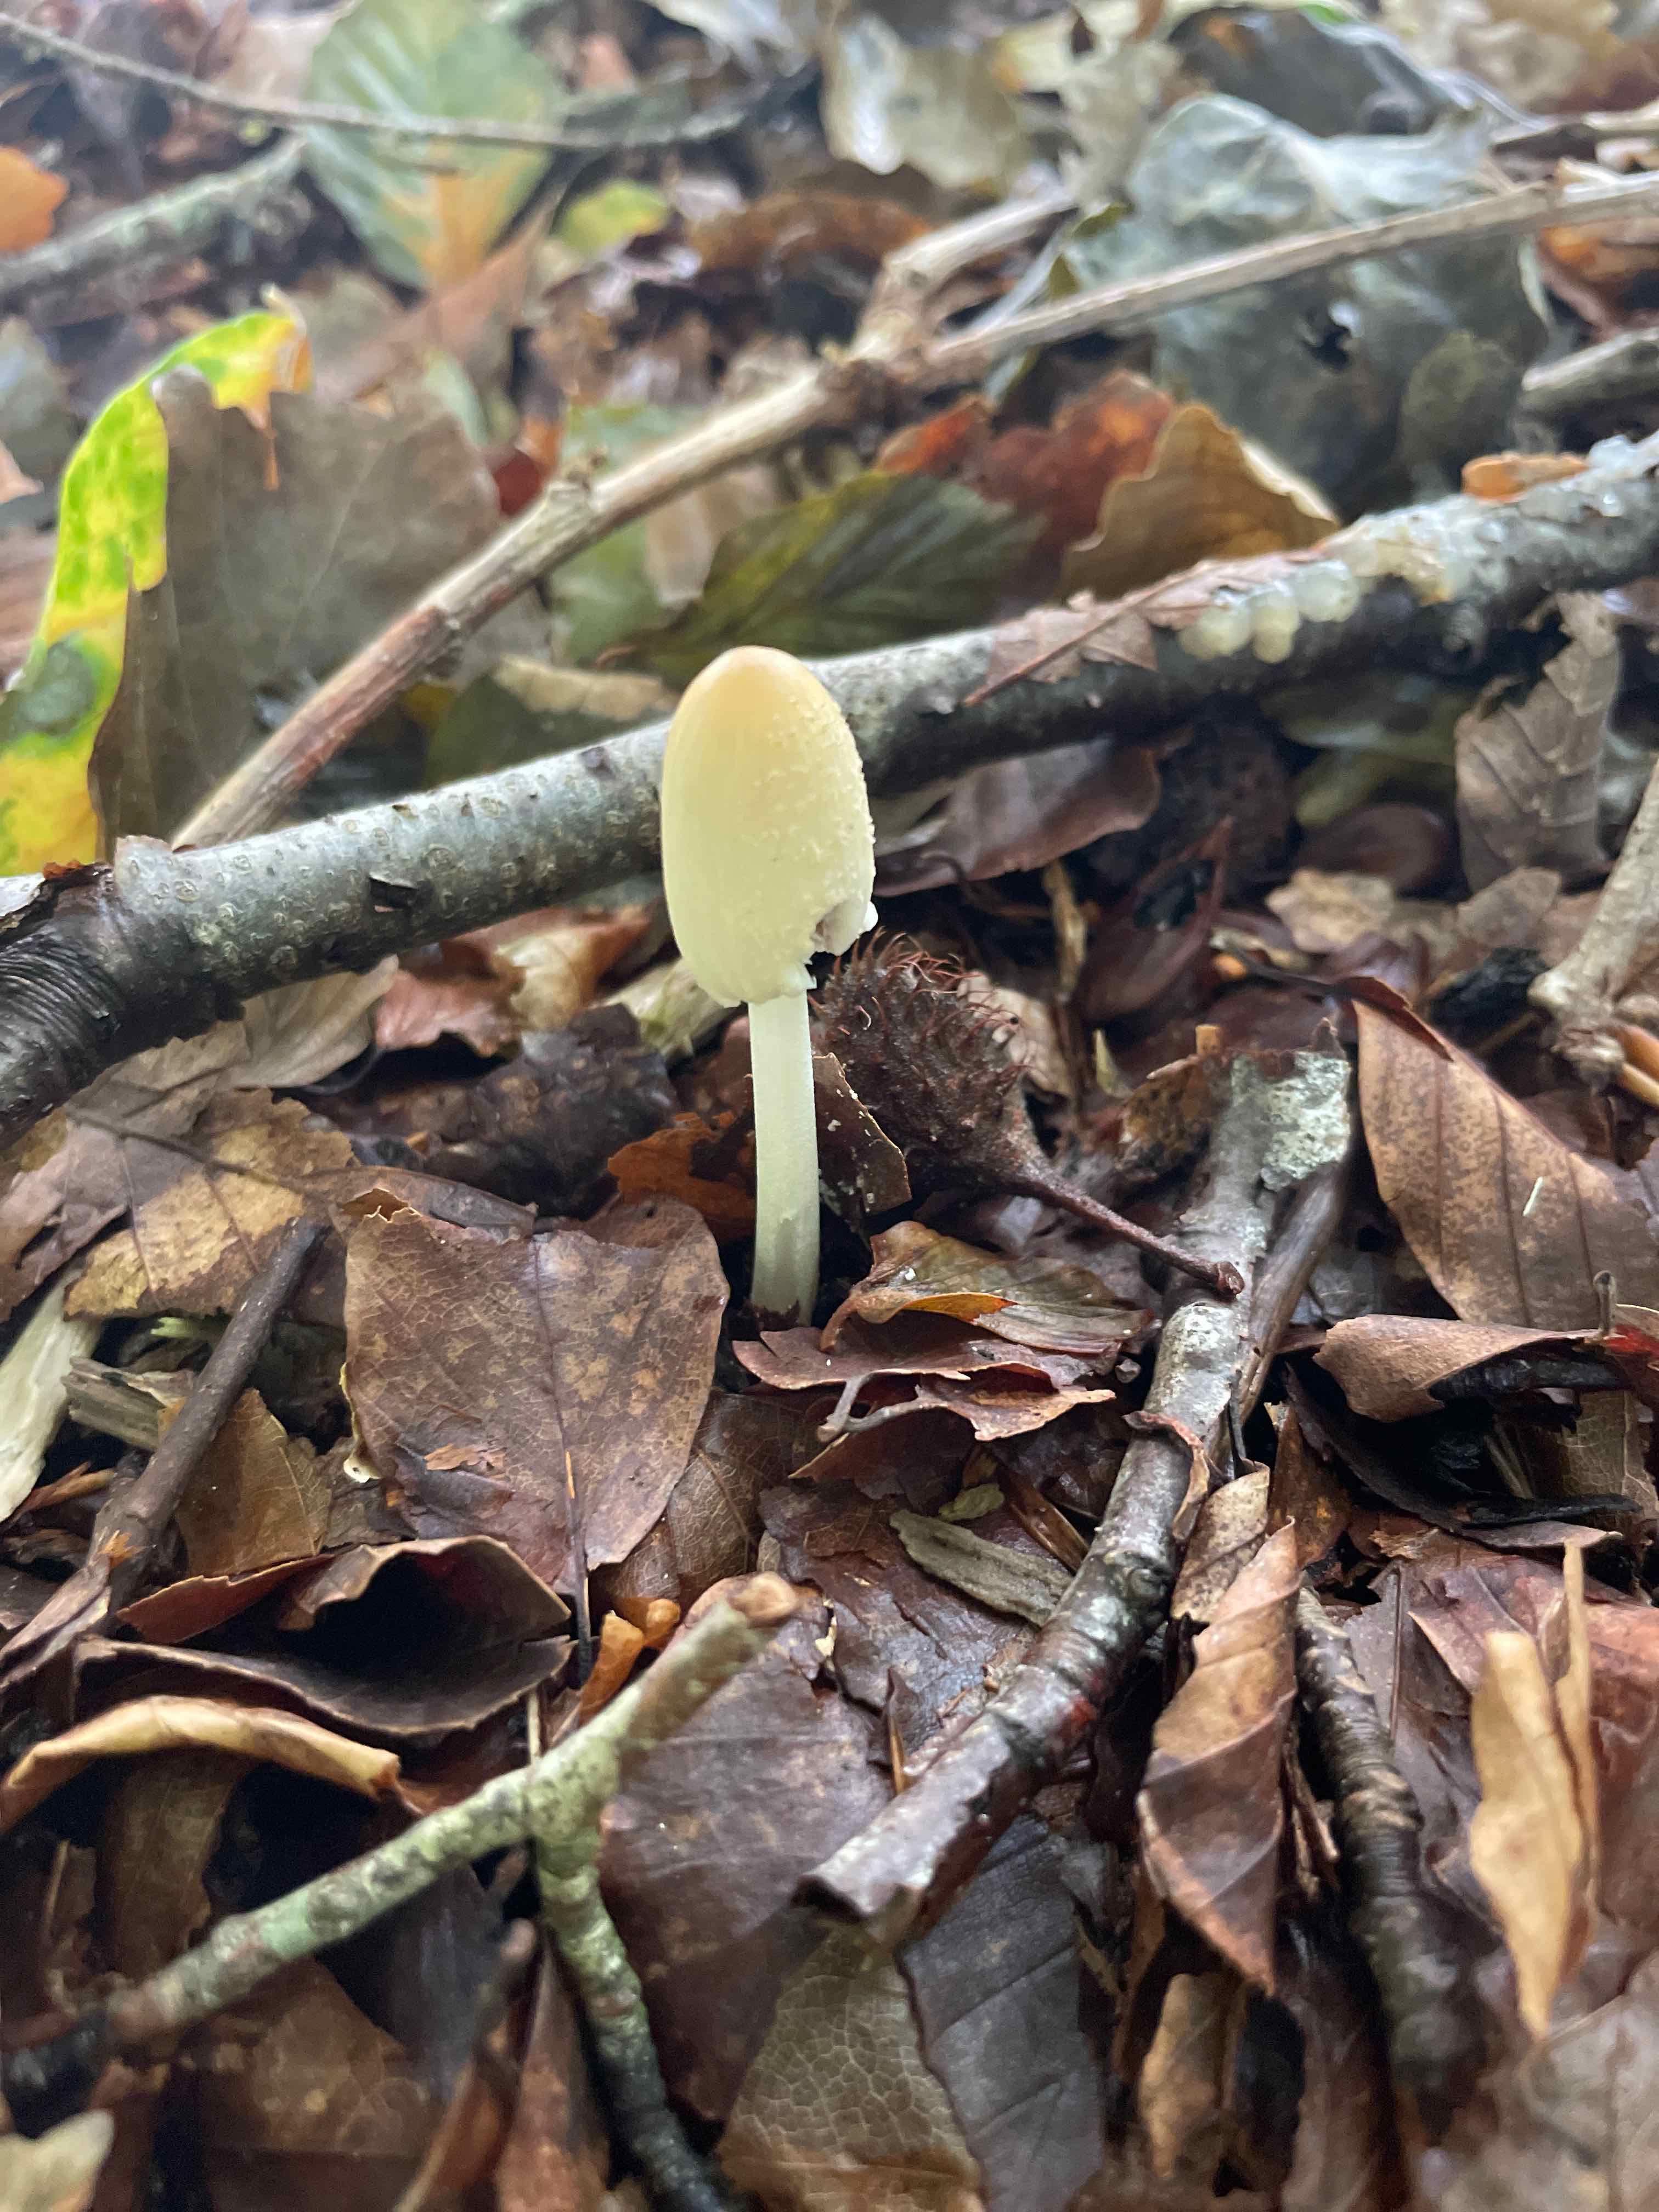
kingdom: Fungi
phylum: Basidiomycota
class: Agaricomycetes
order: Agaricales
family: Psathyrellaceae
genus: Coprinellus
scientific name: Coprinellus
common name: blækhat
